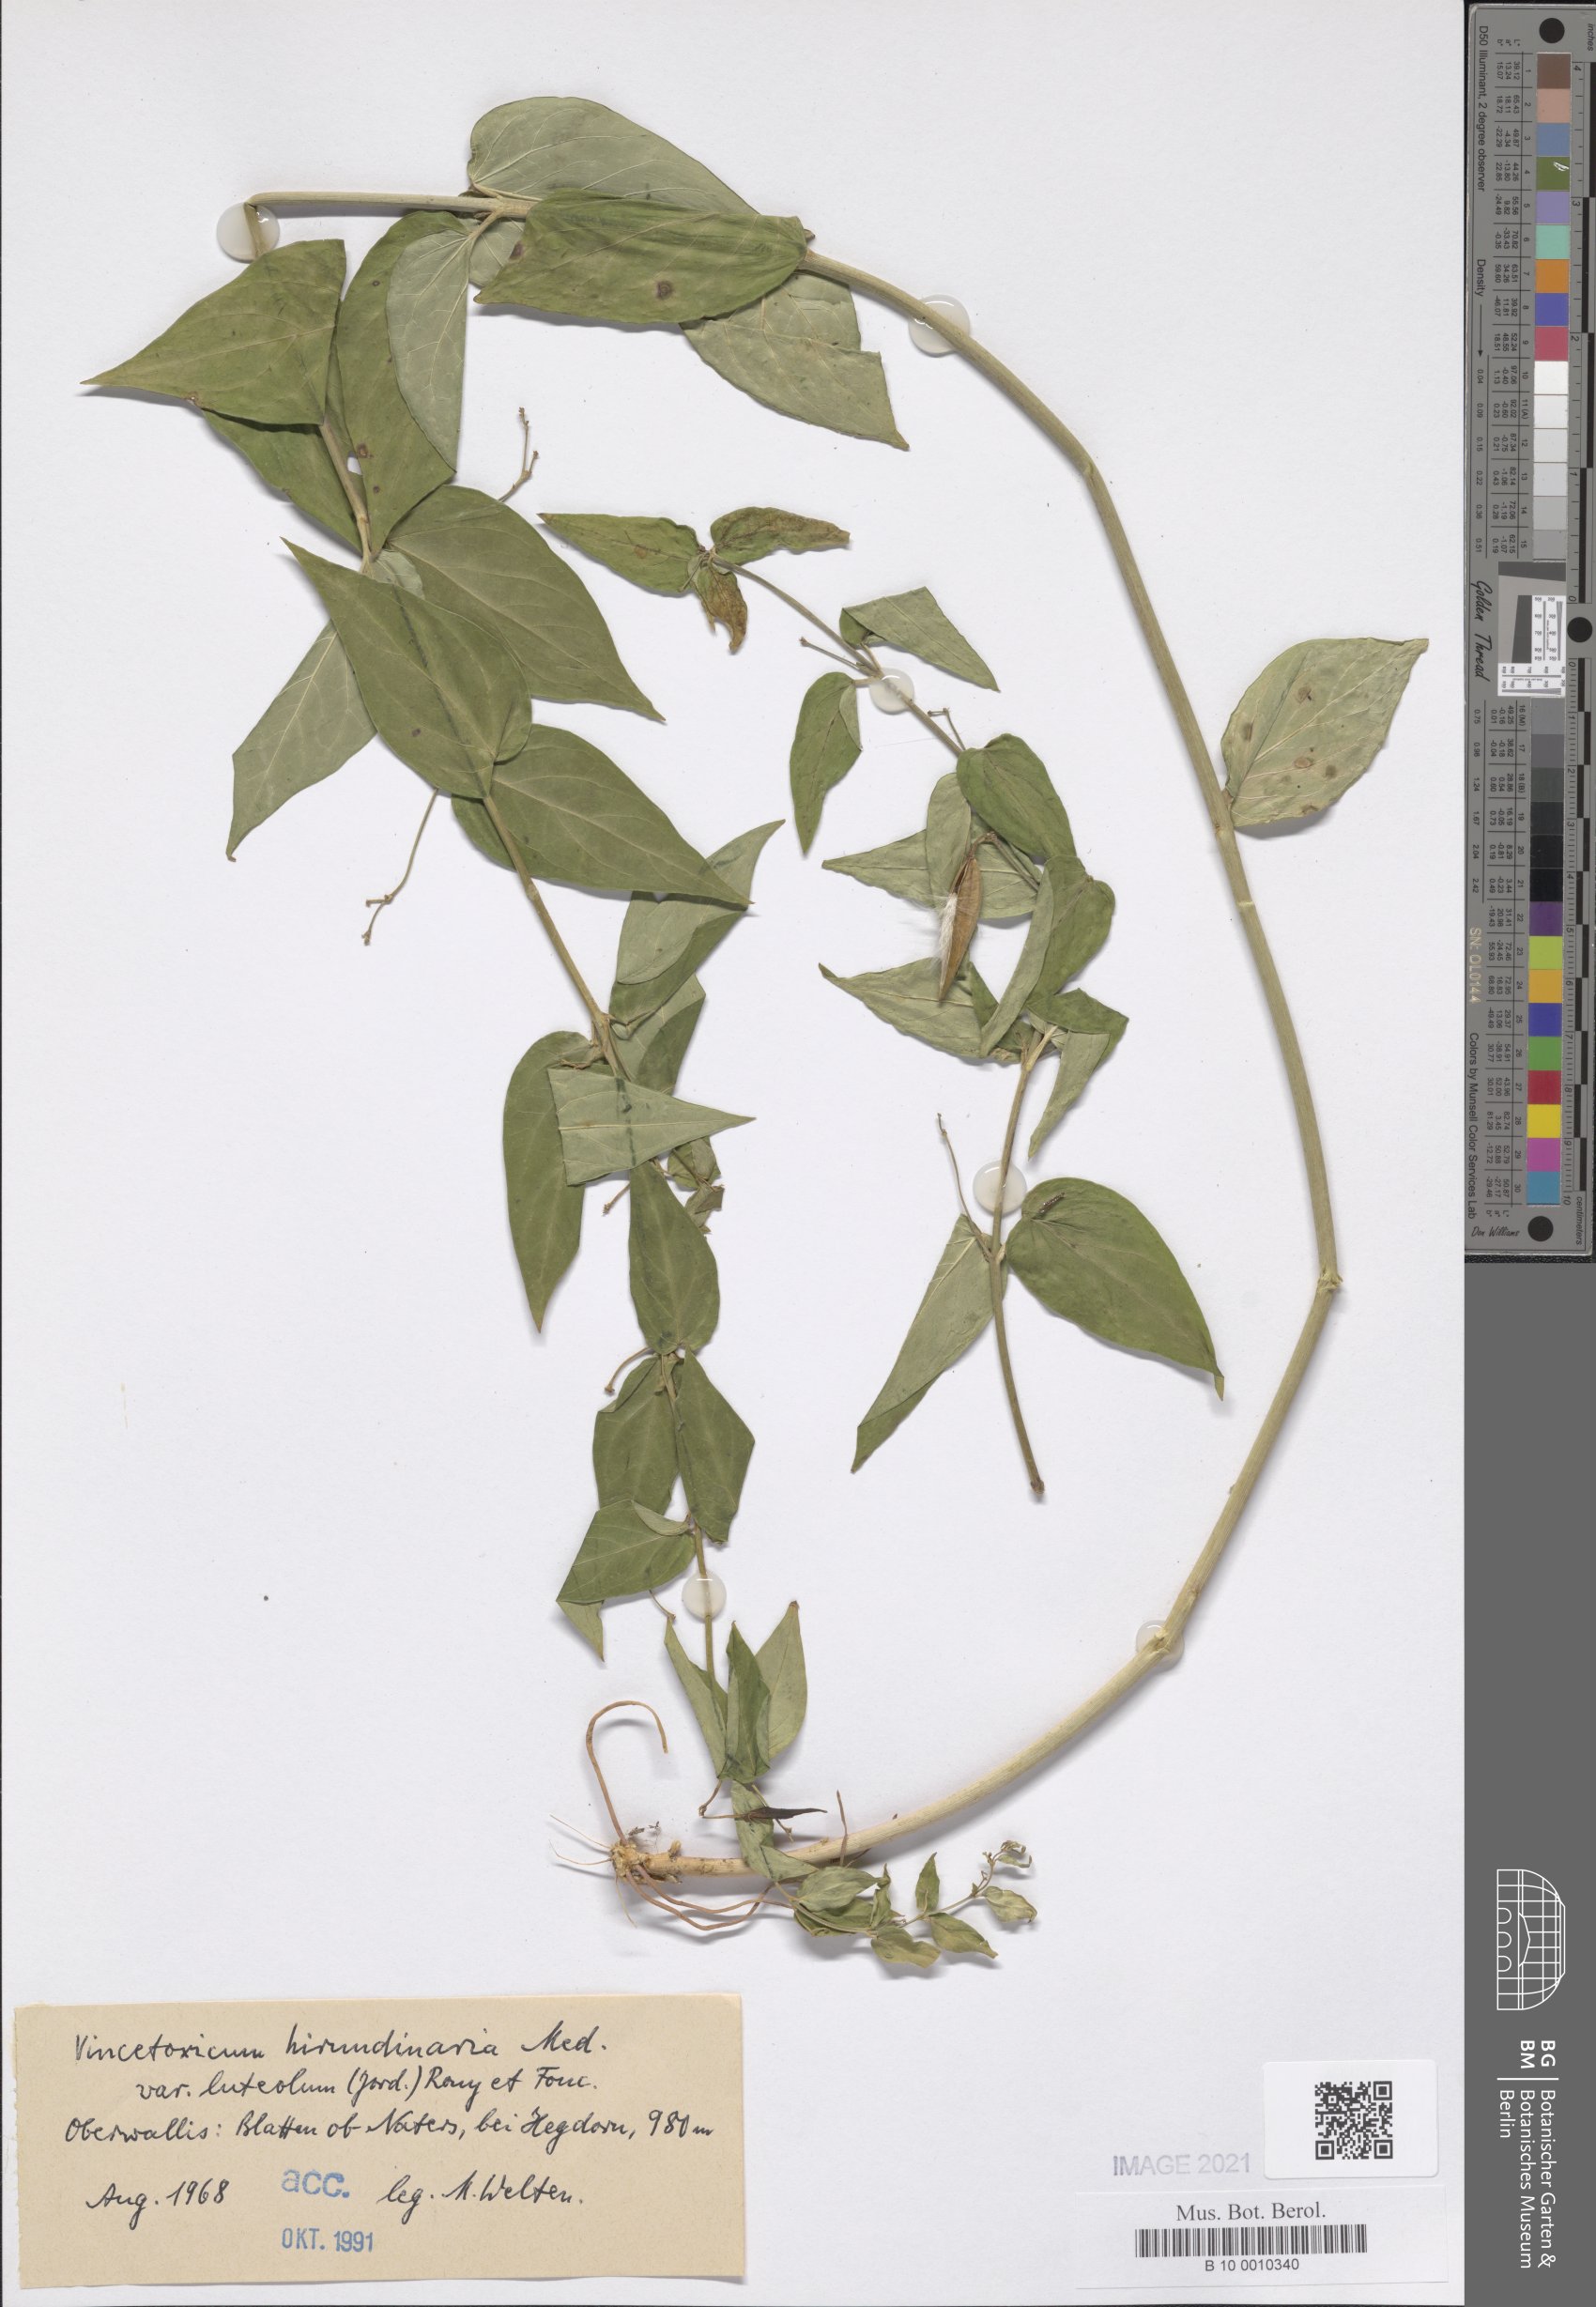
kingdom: Plantae
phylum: Tracheophyta
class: Magnoliopsida
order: Gentianales
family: Apocynaceae
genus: Vincetoxicum
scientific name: Vincetoxicum hirundinaria
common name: White swallowwort
